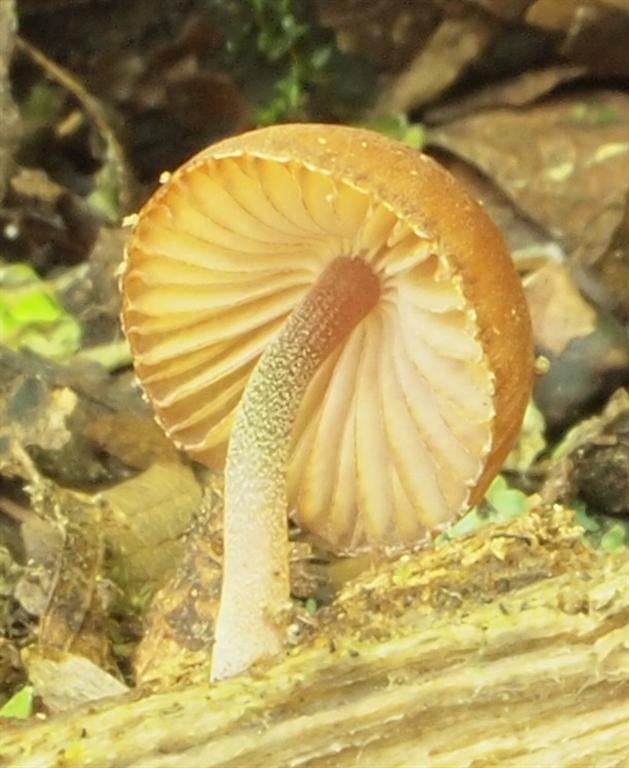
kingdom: Fungi
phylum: Basidiomycota
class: Agaricomycetes
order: Agaricales
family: Mycenaceae
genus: Mycena
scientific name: Mycena haematopus
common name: blødende huesvamp
